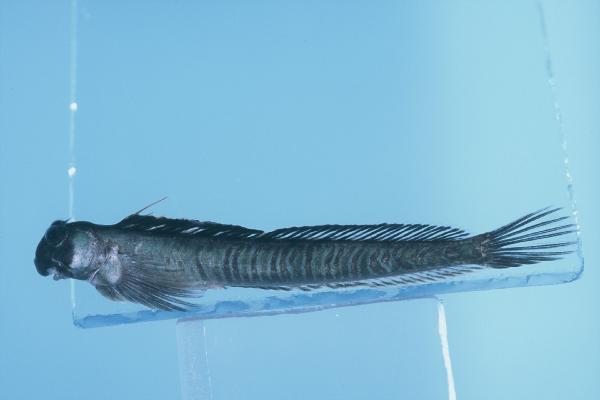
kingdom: Animalia
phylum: Chordata
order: Perciformes
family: Blenniidae
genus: Alticus
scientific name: Alticus monochrus
